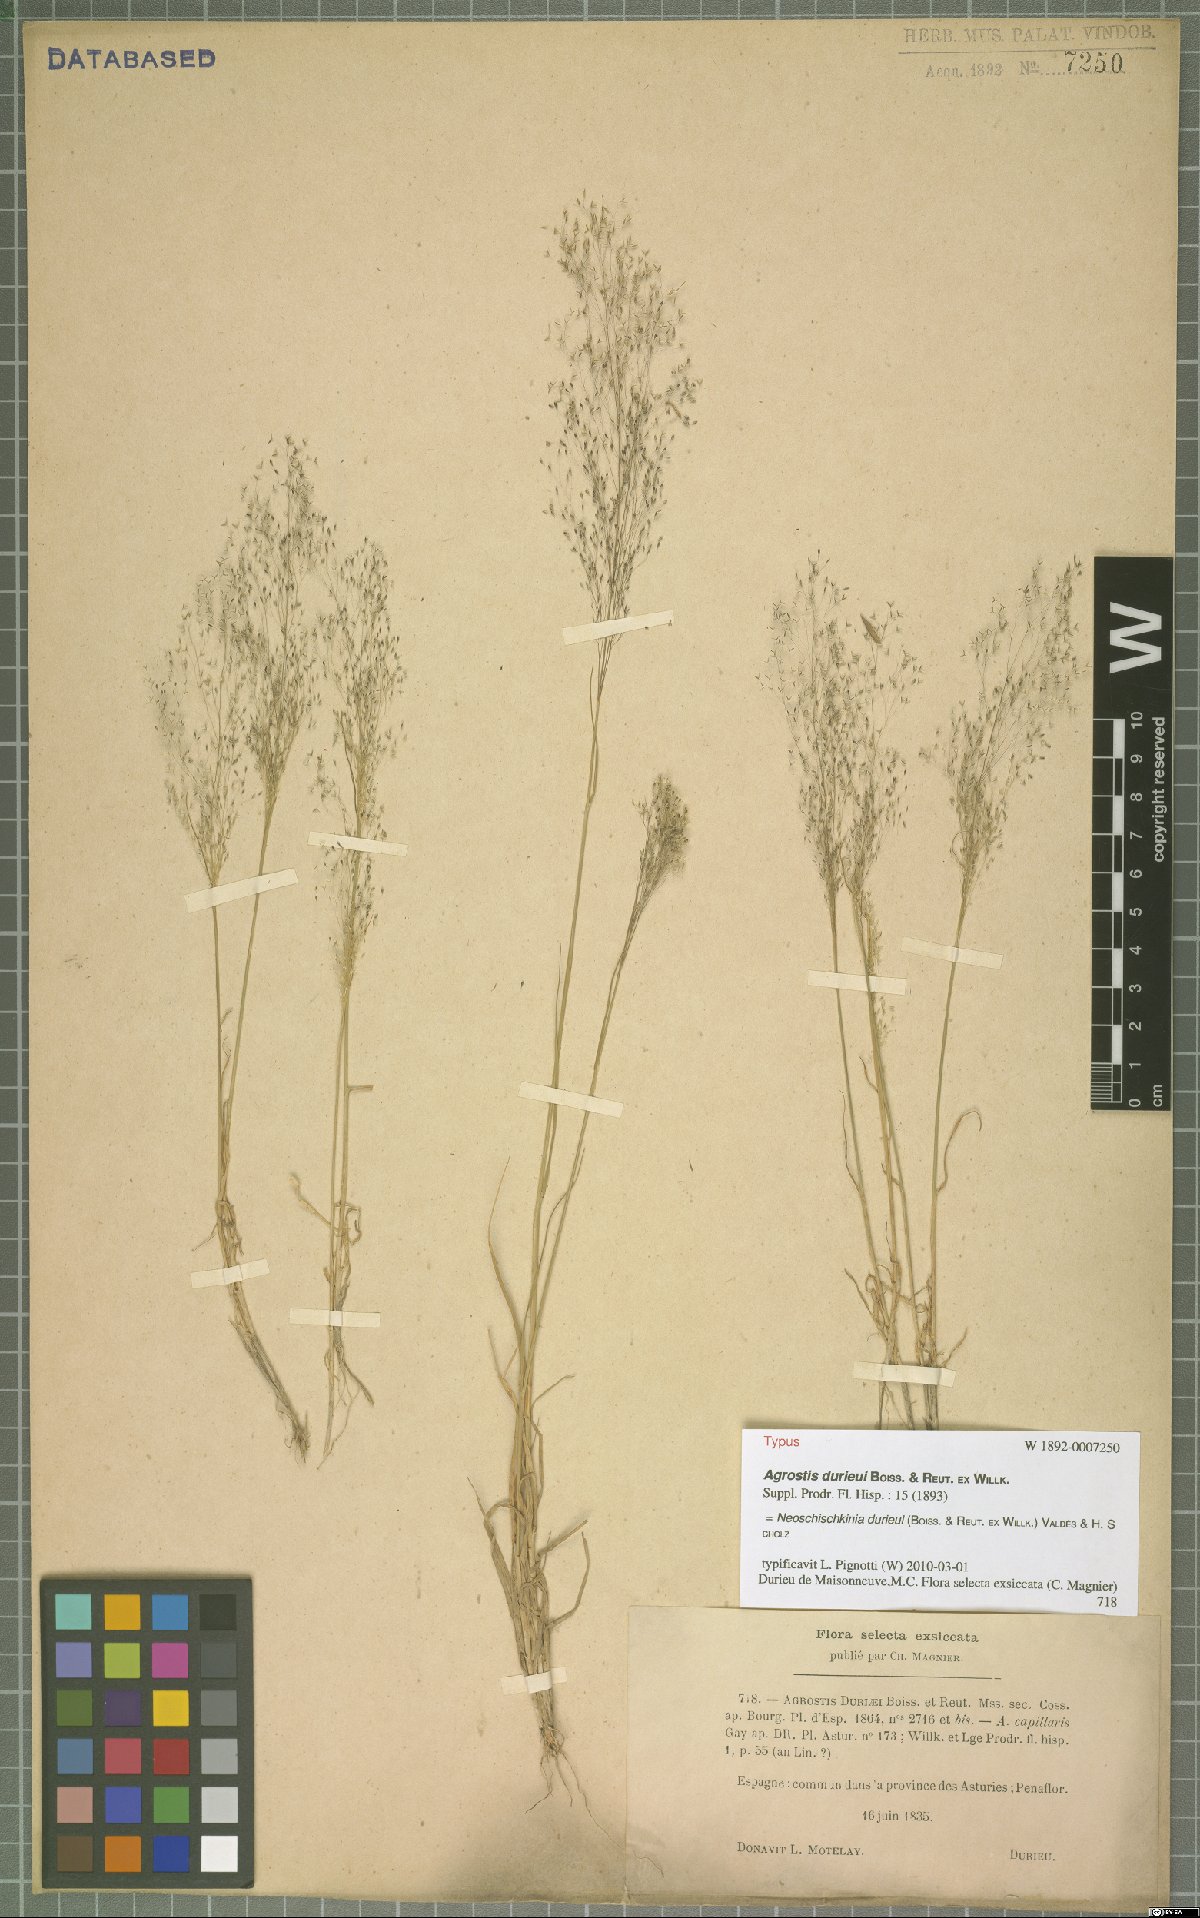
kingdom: Plantae
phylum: Tracheophyta
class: Liliopsida
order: Poales
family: Poaceae
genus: Agrostis
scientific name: Agrostis castellana
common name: Highland bent
